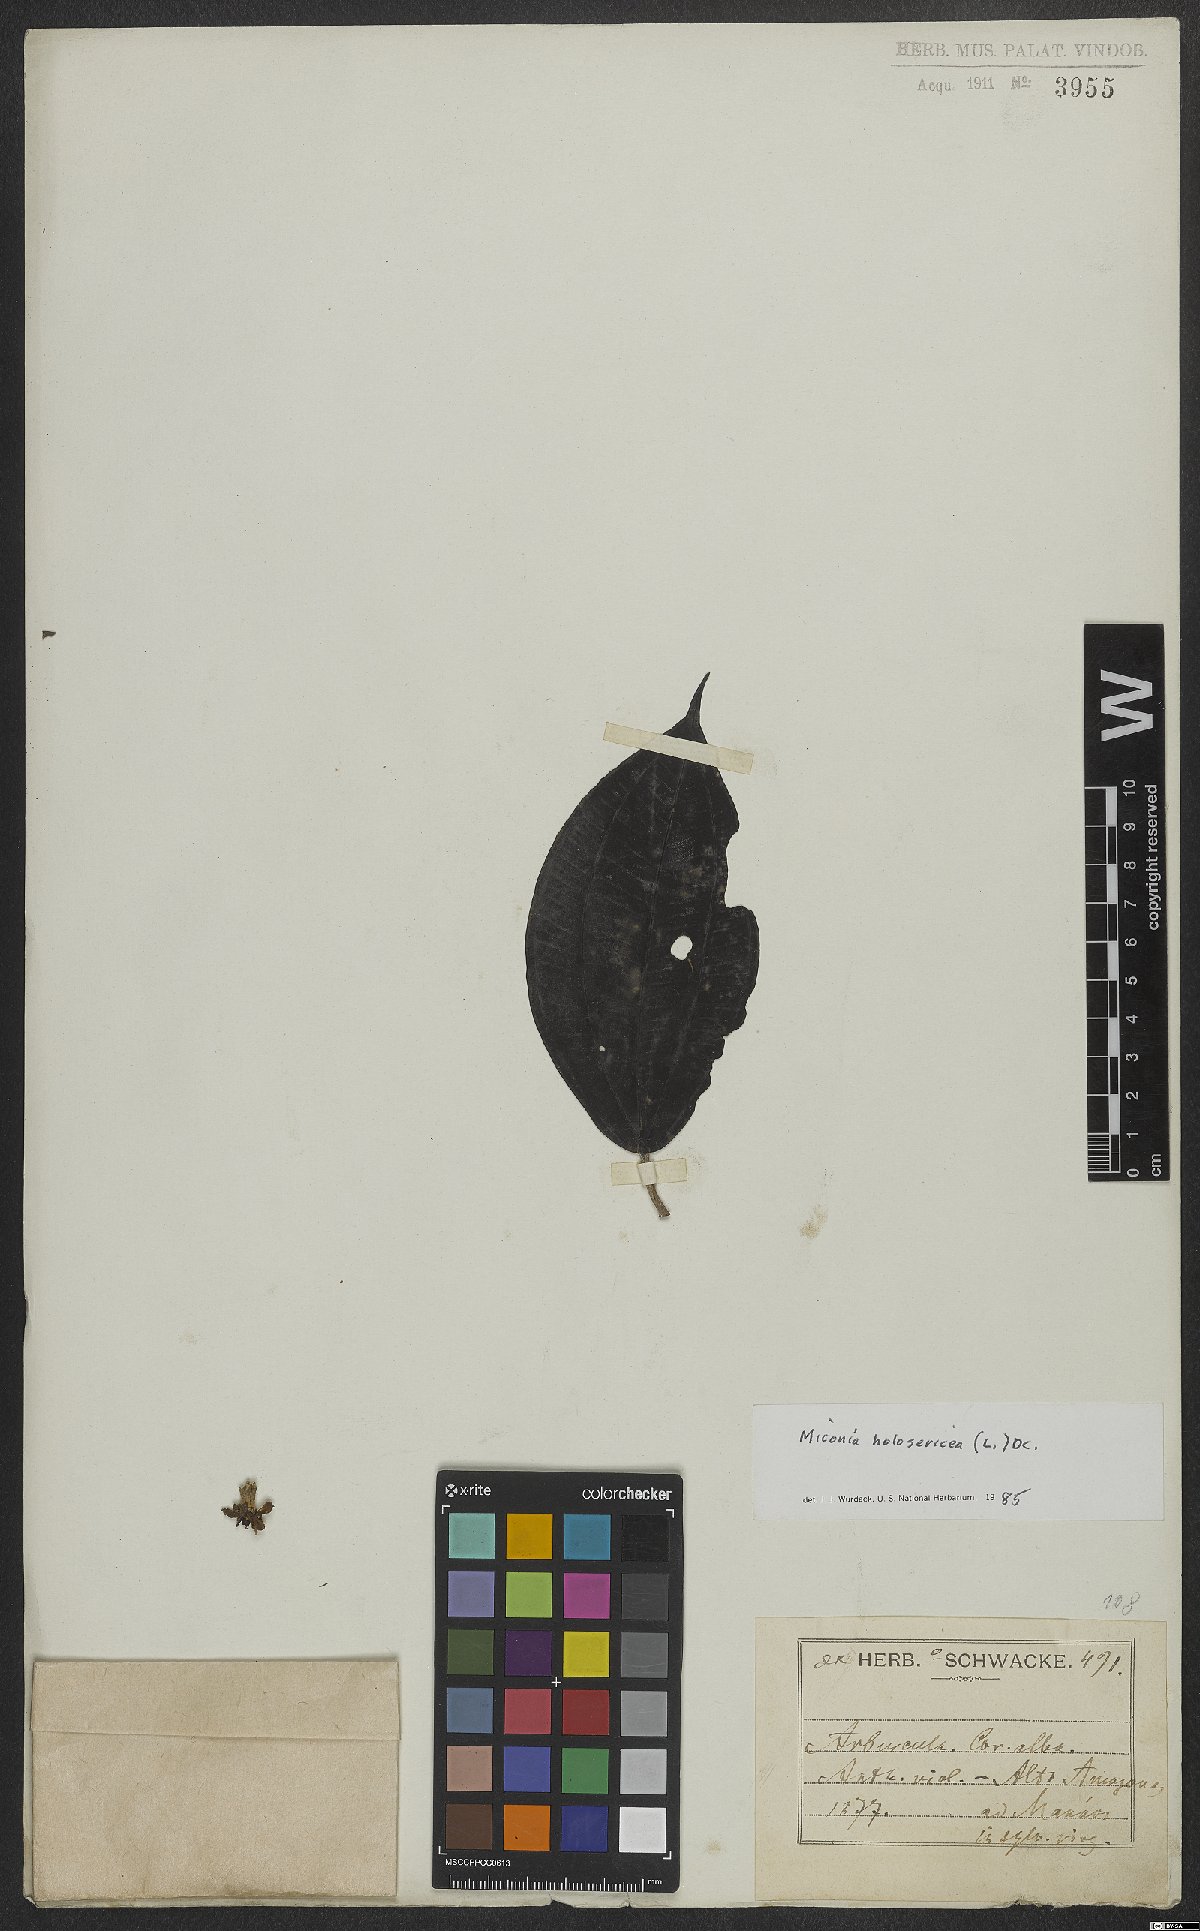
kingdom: Plantae
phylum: Tracheophyta
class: Magnoliopsida
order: Myrtales
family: Melastomataceae
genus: Miconia
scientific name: Miconia holosericea
